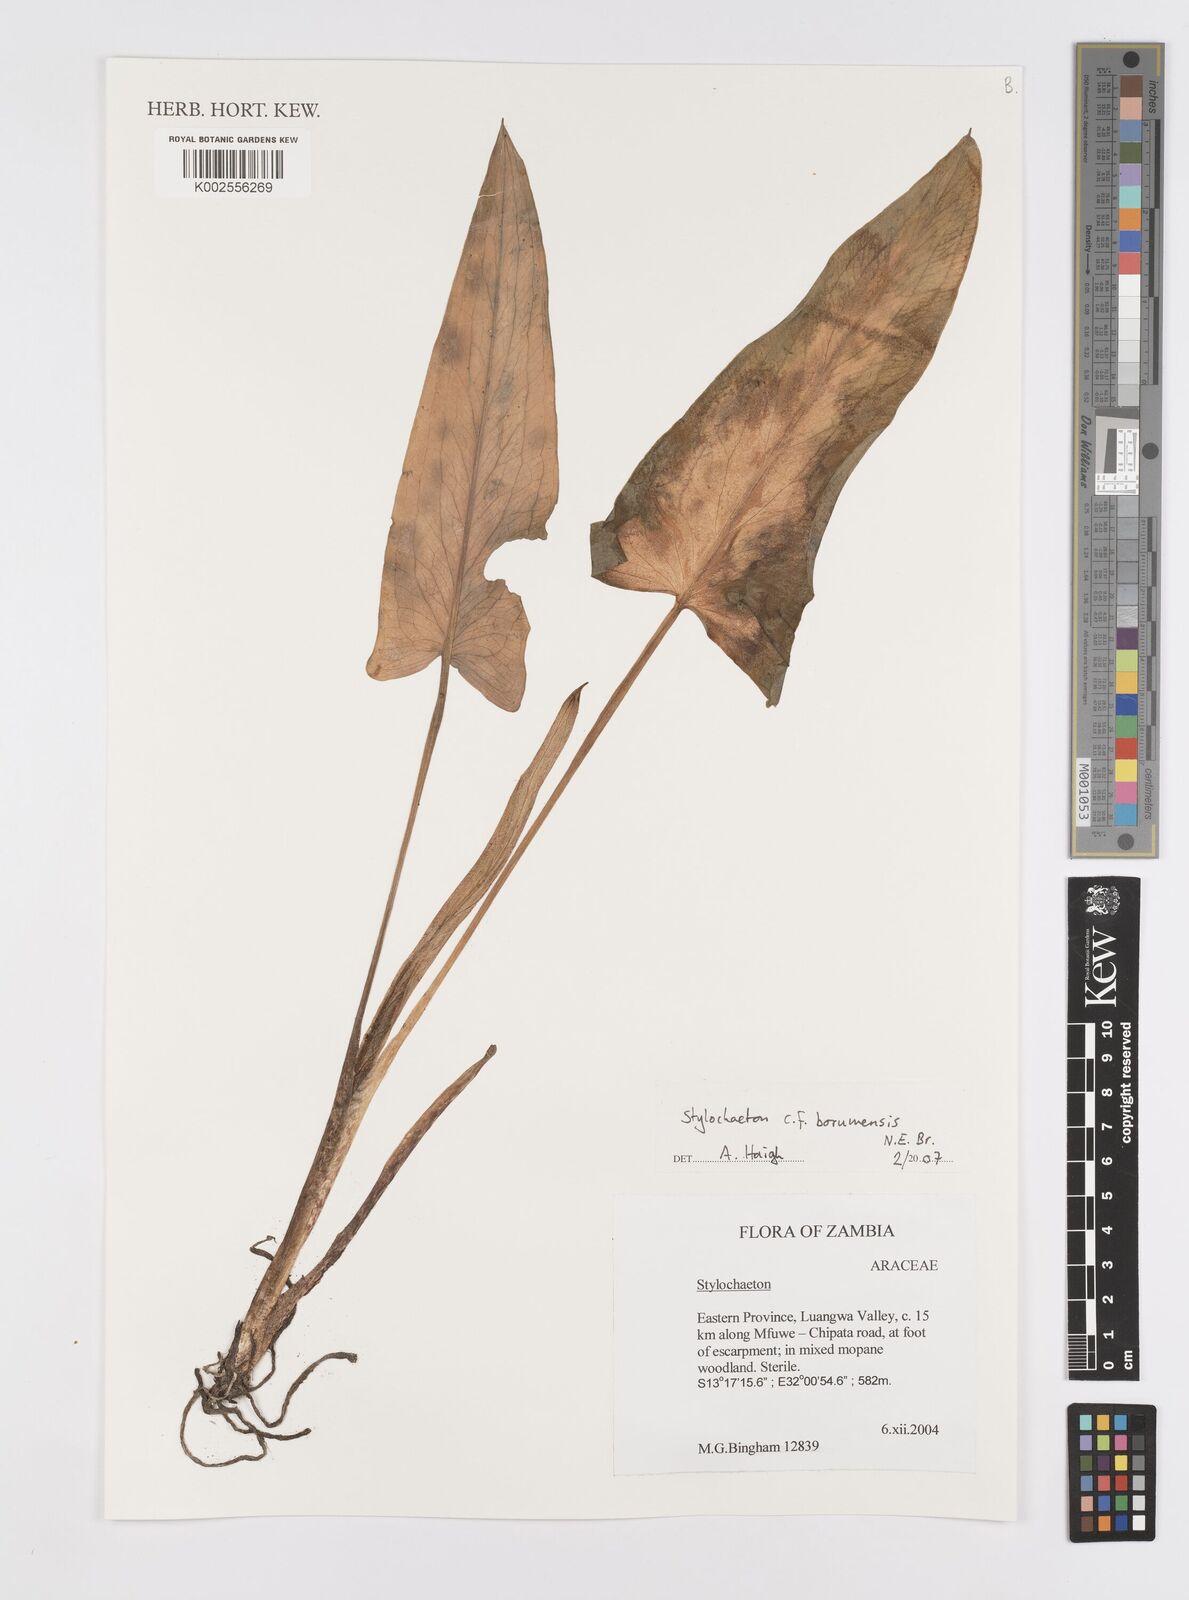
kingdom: Plantae
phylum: Tracheophyta
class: Liliopsida
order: Alismatales
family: Araceae
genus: Stylochaeton
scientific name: Stylochaeton borumense
